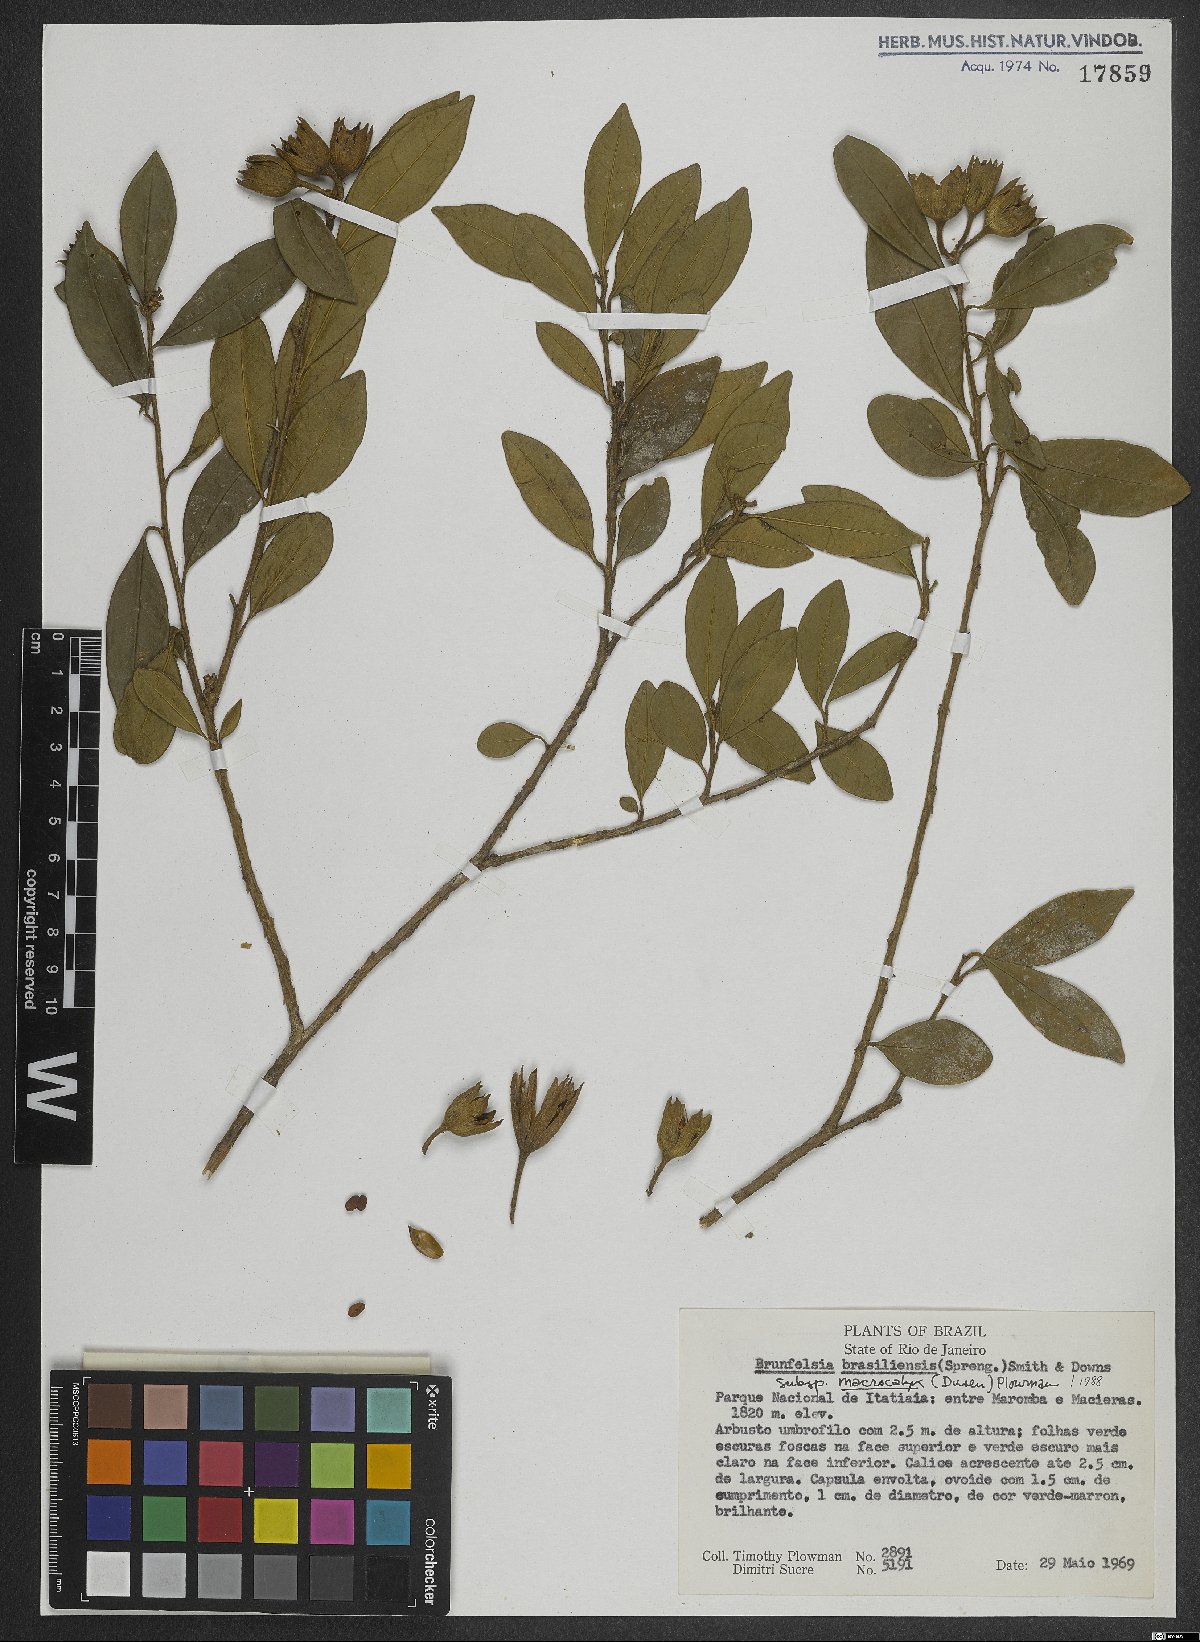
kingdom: Plantae
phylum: Tracheophyta
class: Magnoliopsida
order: Solanales
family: Solanaceae
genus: Brunfelsia
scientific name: Brunfelsia brasiliensis
